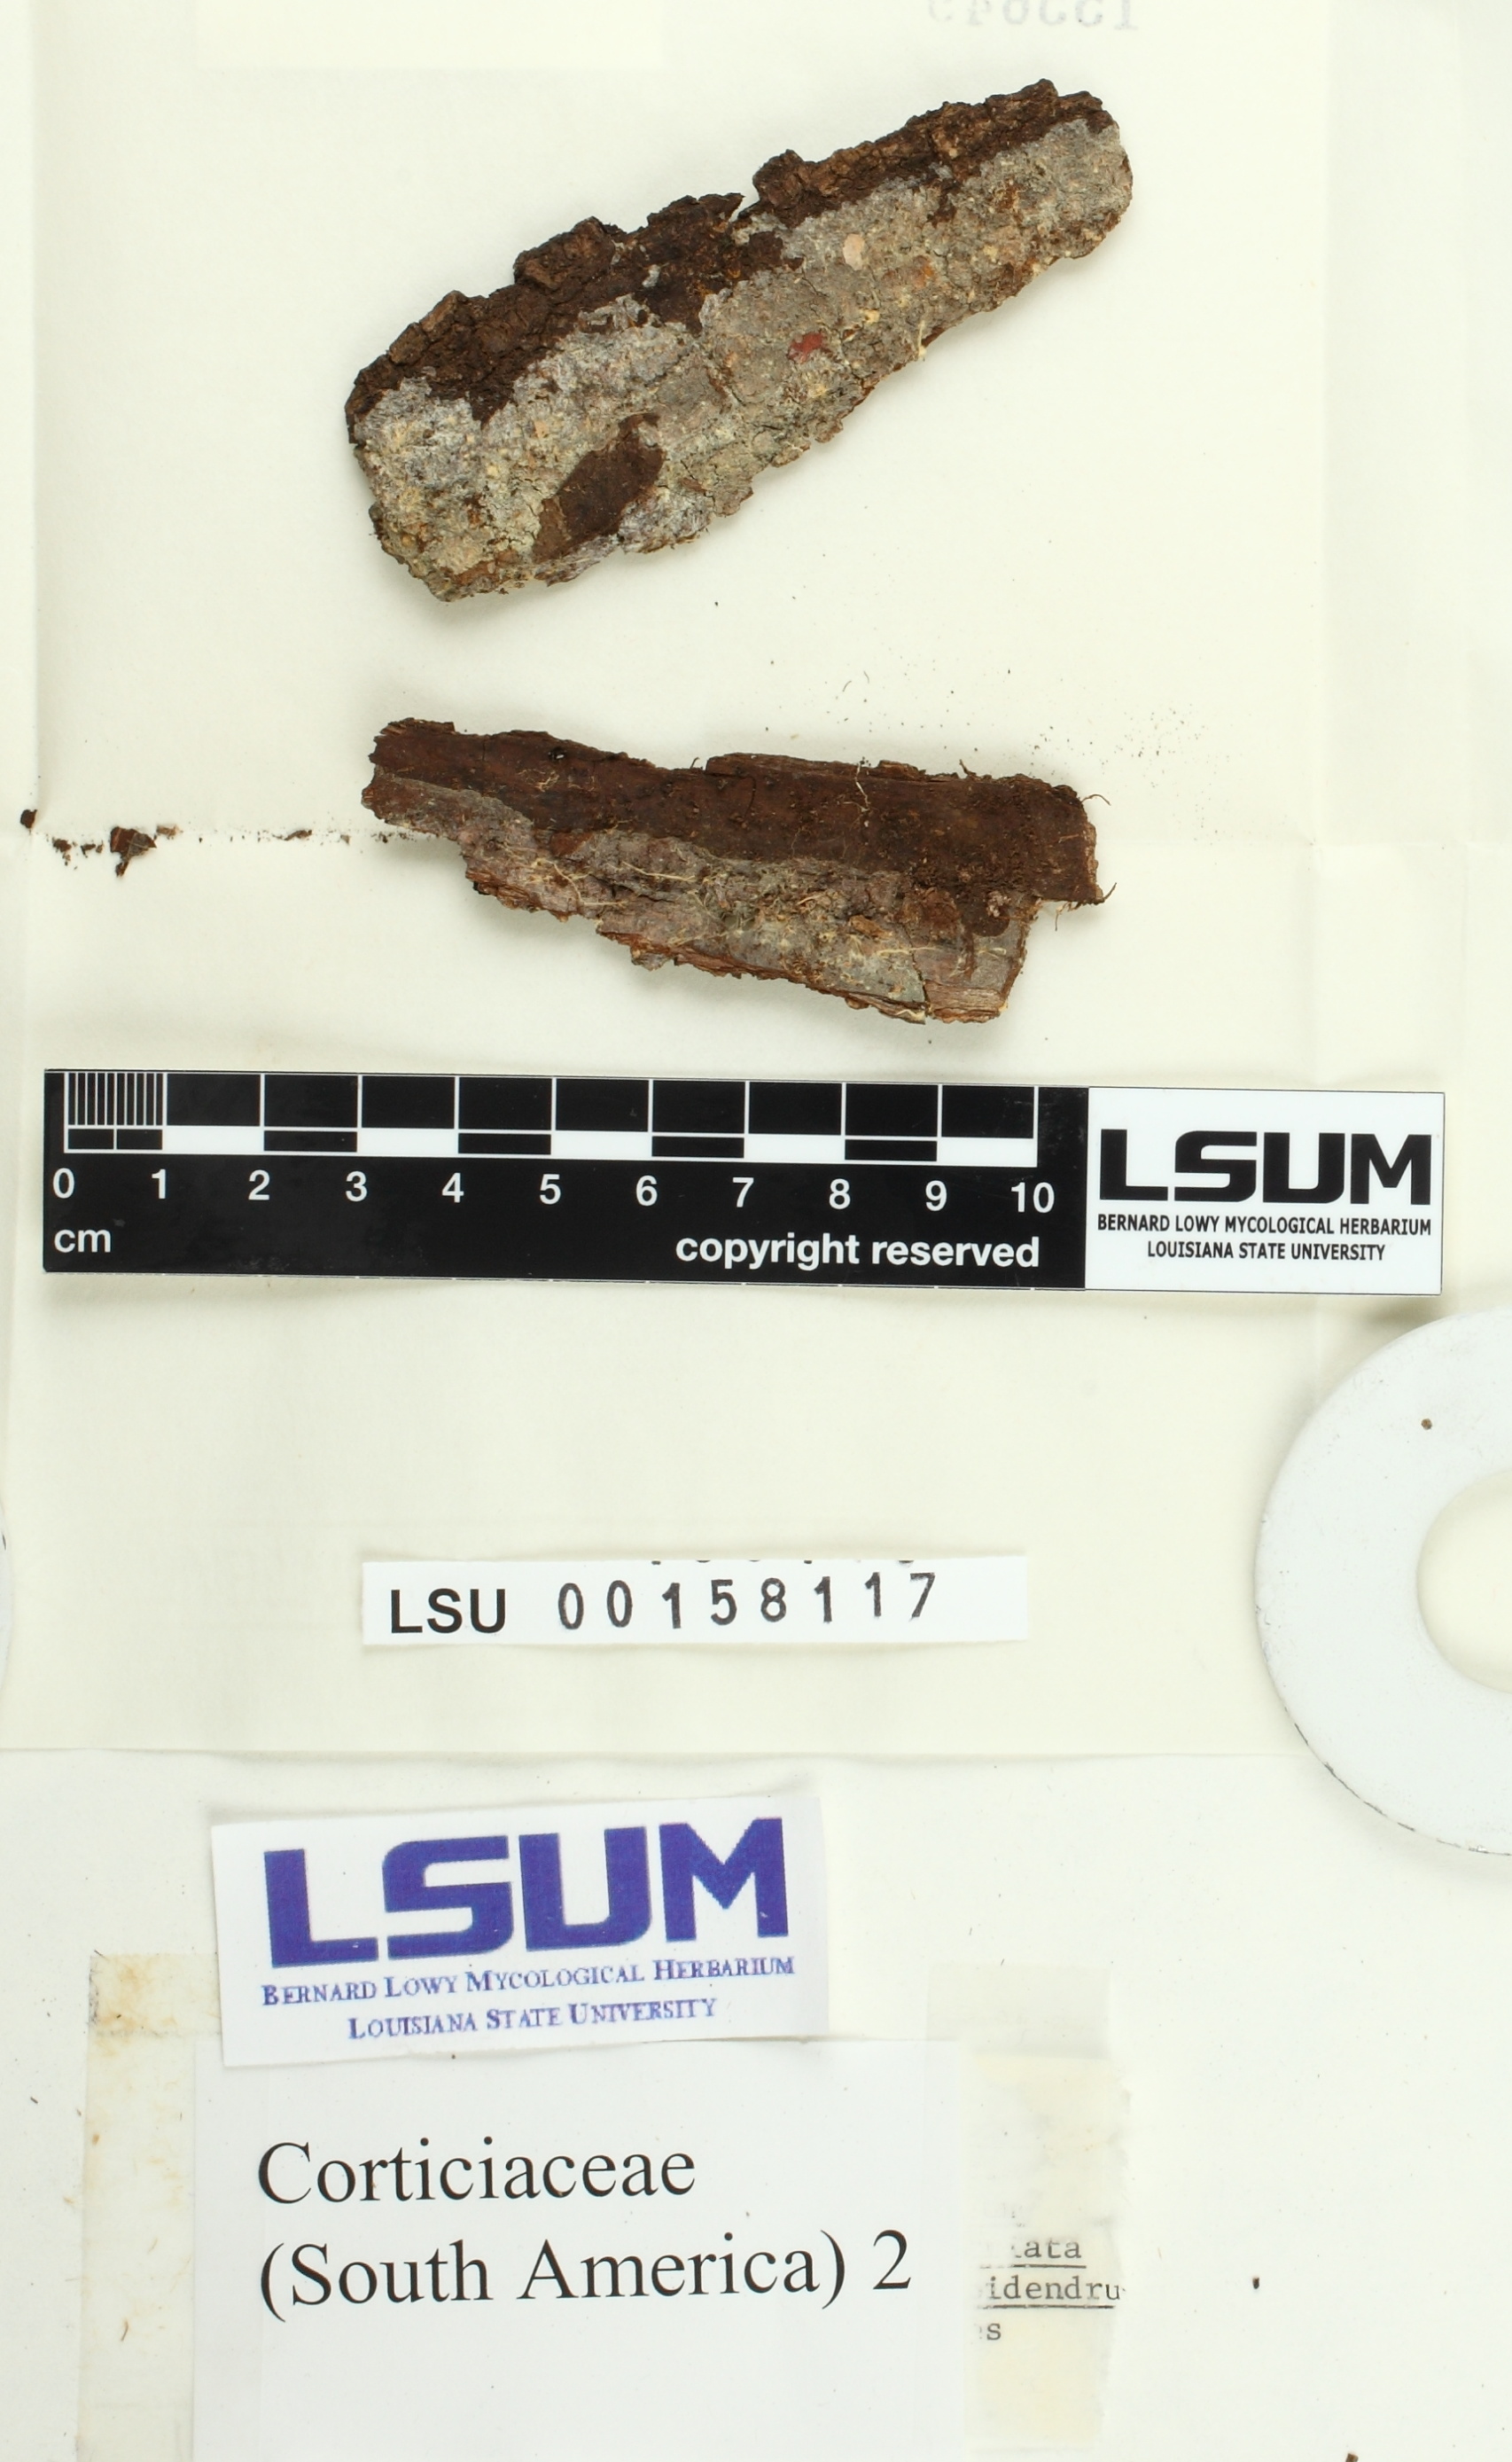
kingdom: Fungi
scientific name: Fungi
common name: Fungi
